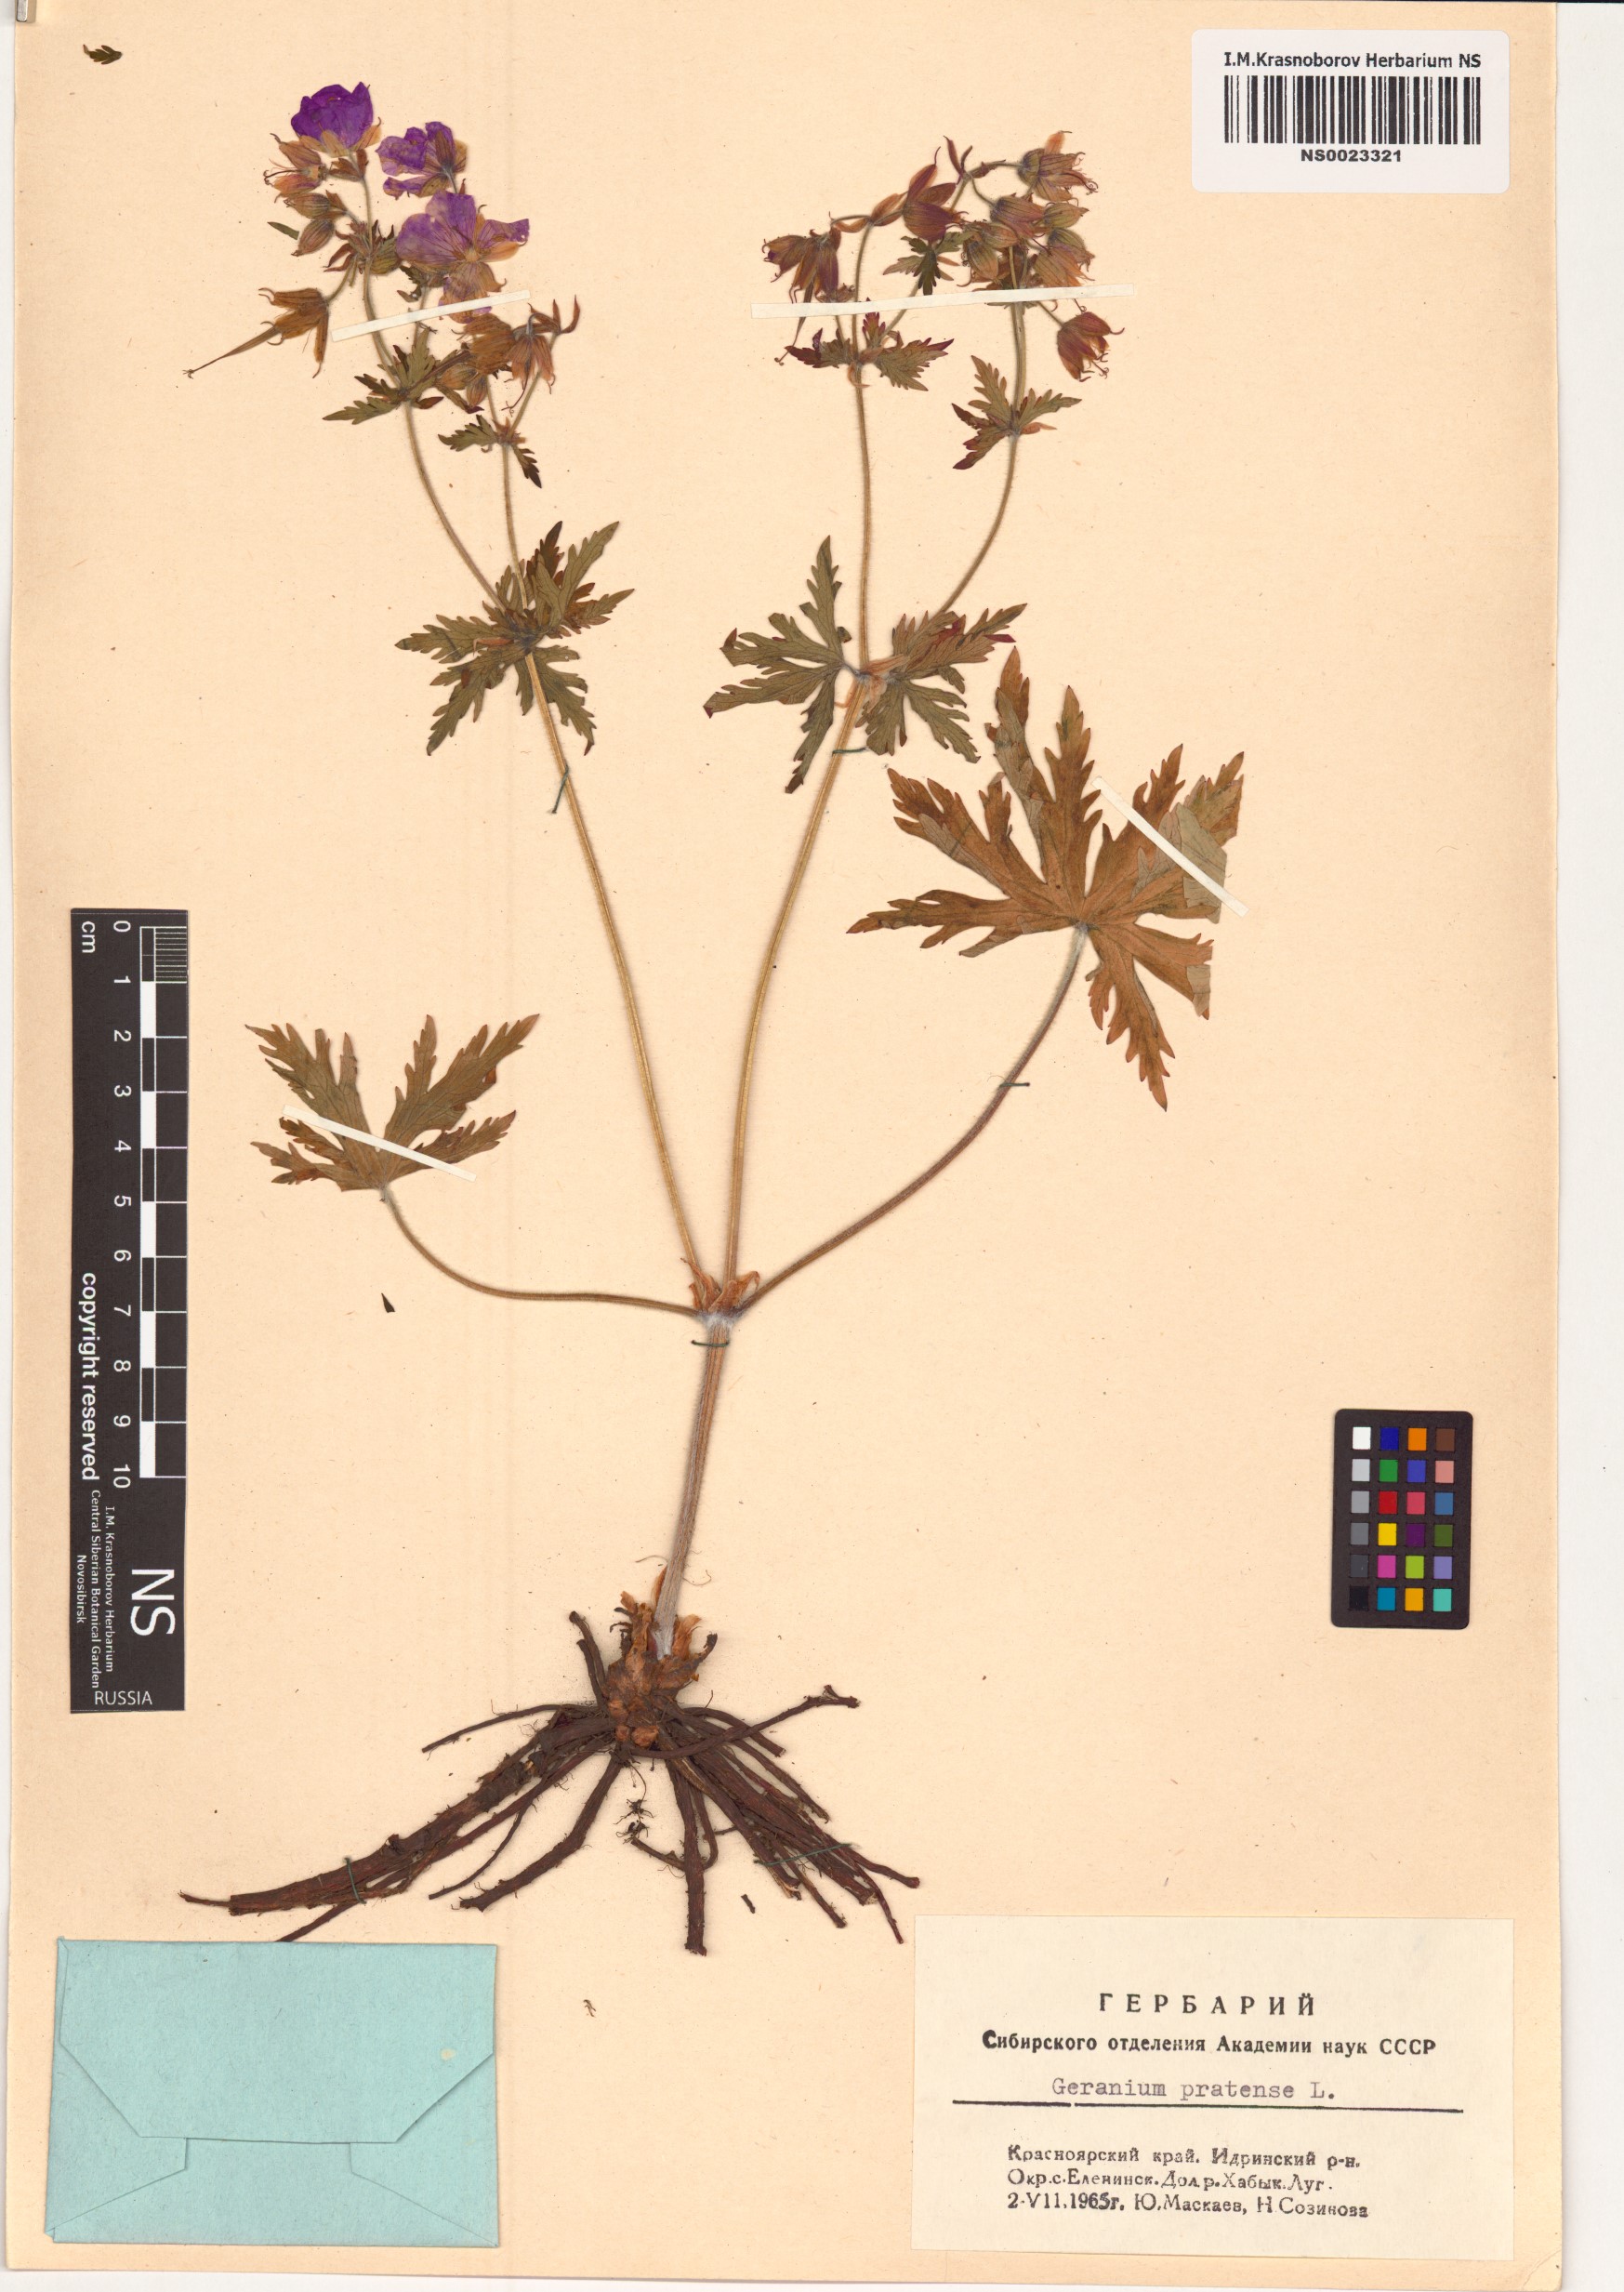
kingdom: Plantae
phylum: Tracheophyta
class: Magnoliopsida
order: Geraniales
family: Geraniaceae
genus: Geranium
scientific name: Geranium pratense
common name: Meadow crane's-bill
